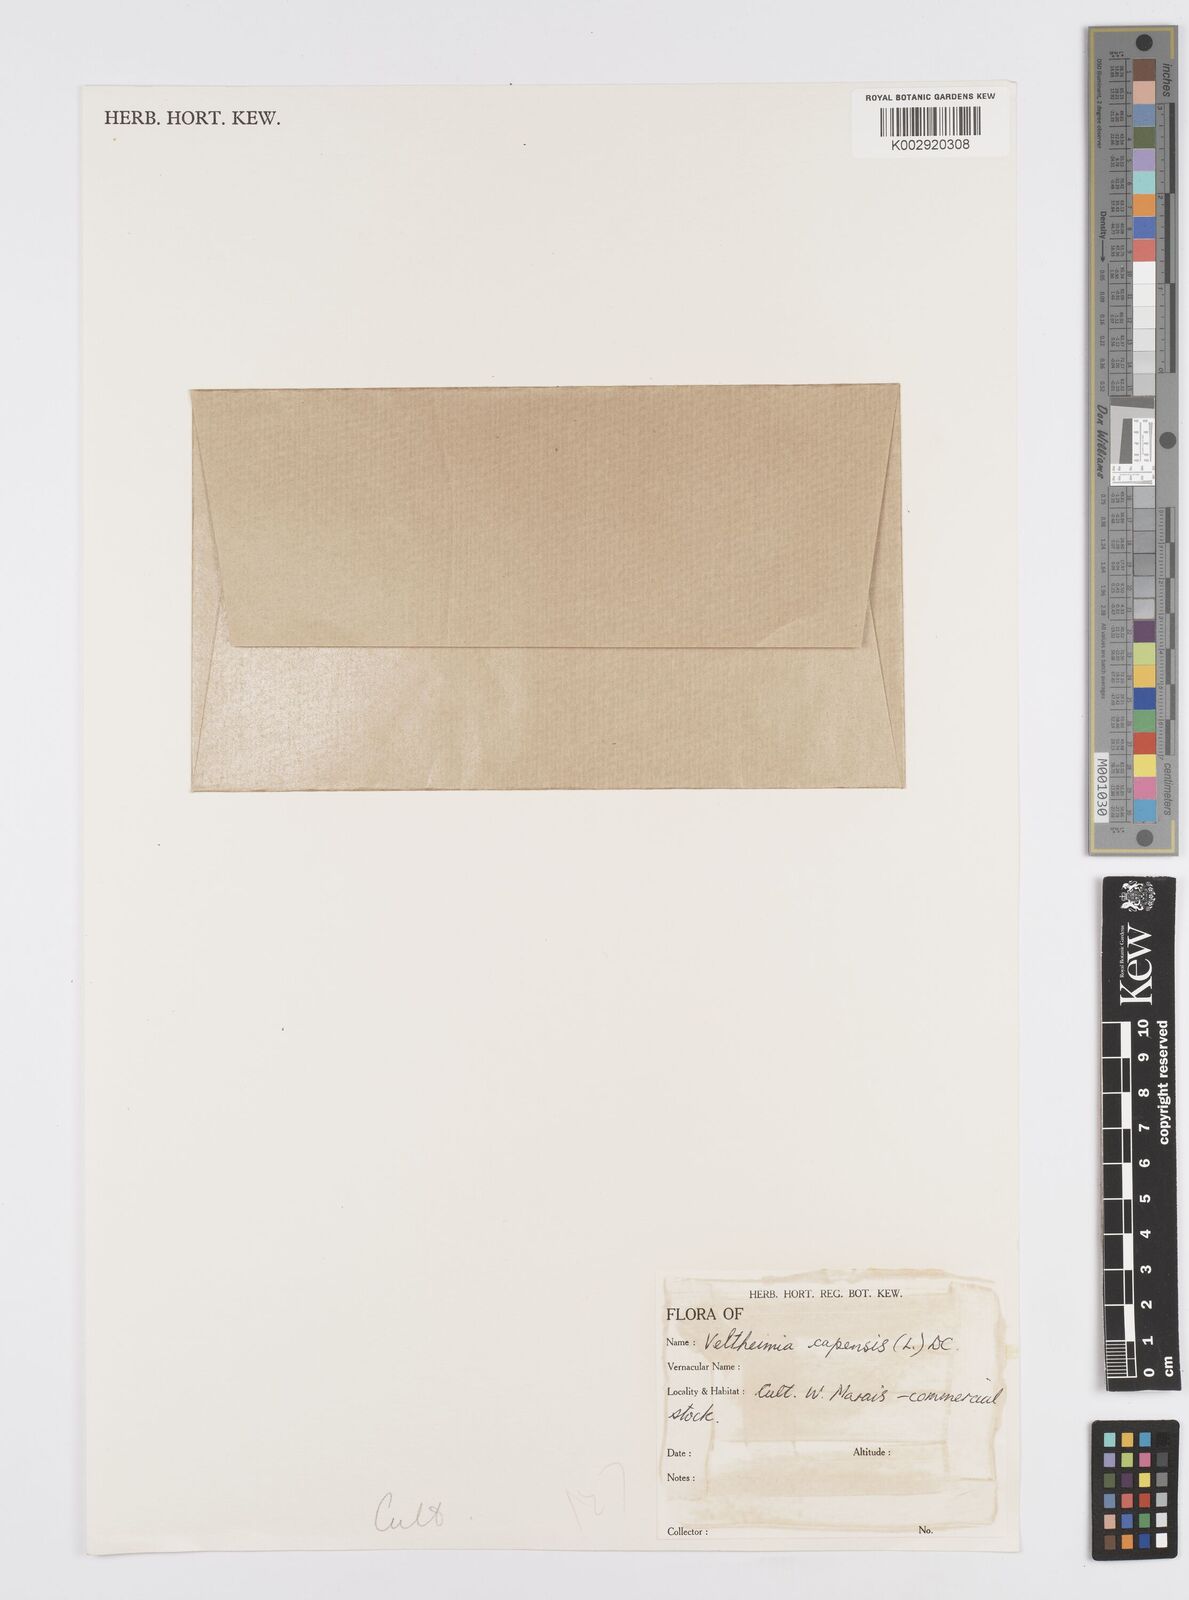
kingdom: Plantae
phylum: Tracheophyta
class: Liliopsida
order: Asparagales
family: Asparagaceae
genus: Veltheimia
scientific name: Veltheimia capensis
